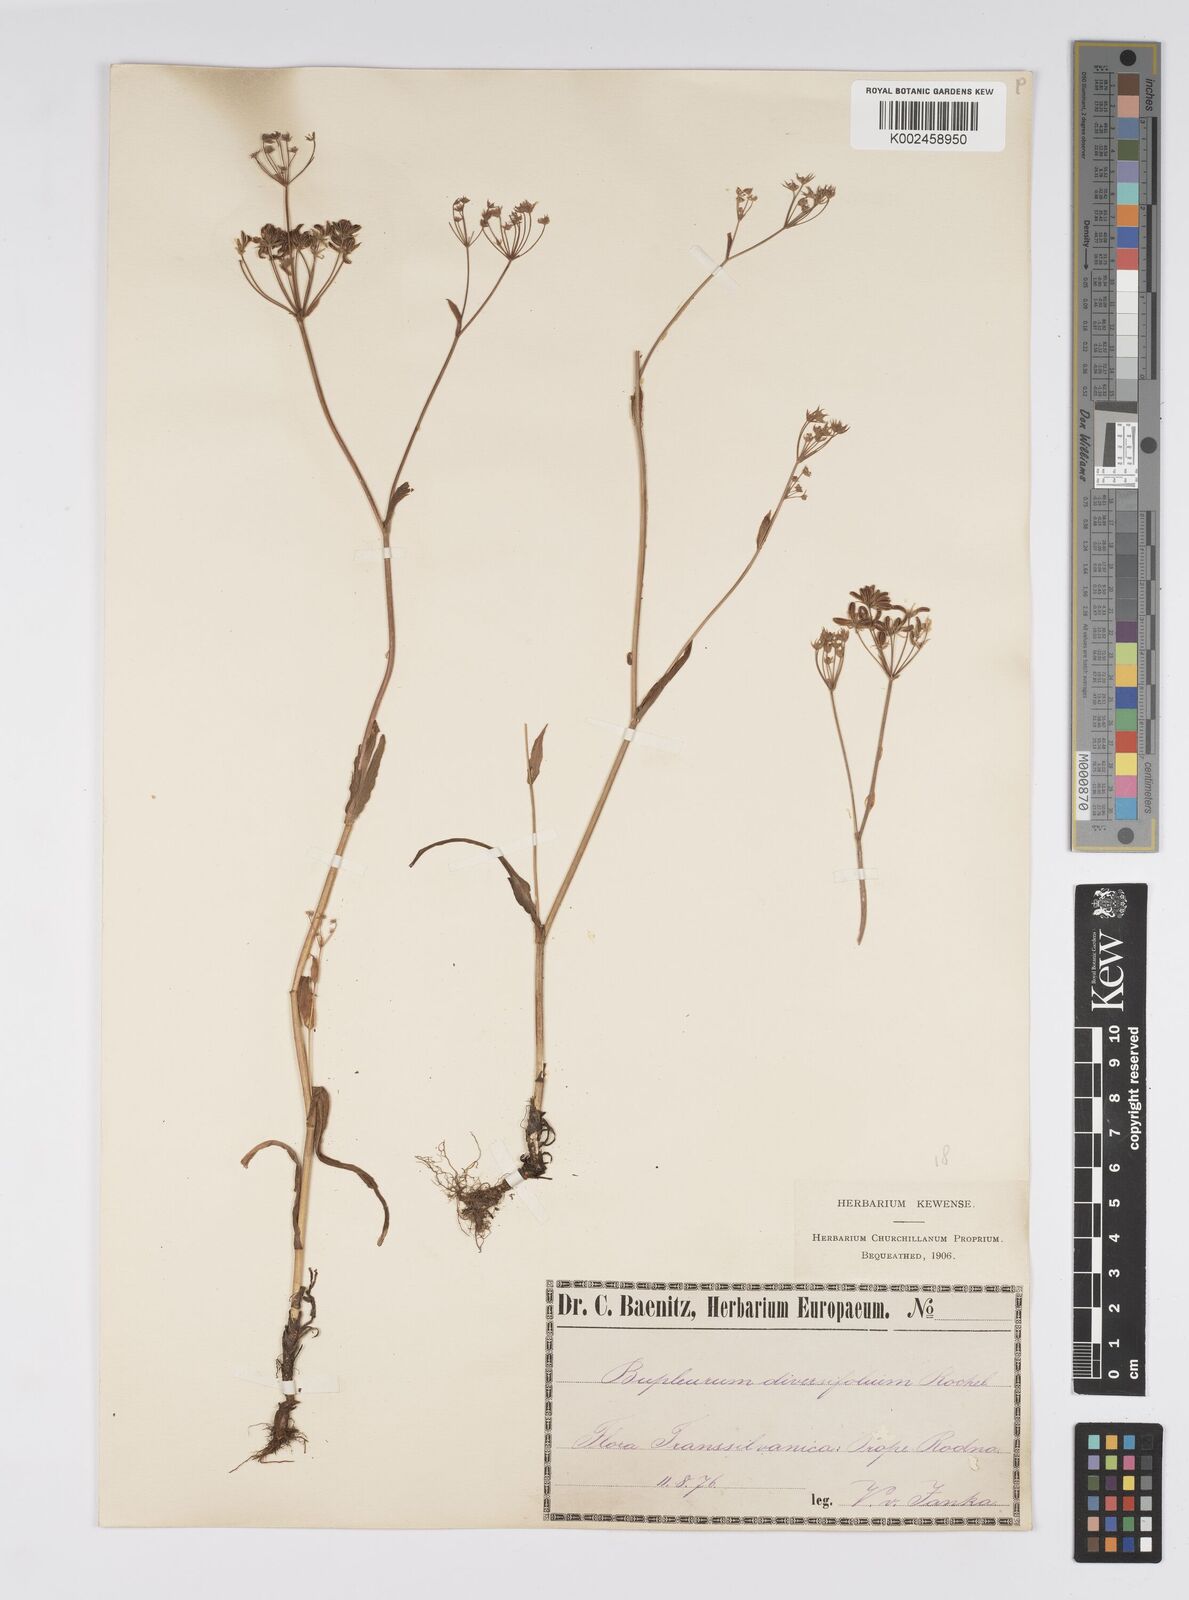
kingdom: Plantae
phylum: Tracheophyta
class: Magnoliopsida
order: Apiales
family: Apiaceae
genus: Bupleurum
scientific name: Bupleurum falcatum
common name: Sickle-leaved hare's-ear
